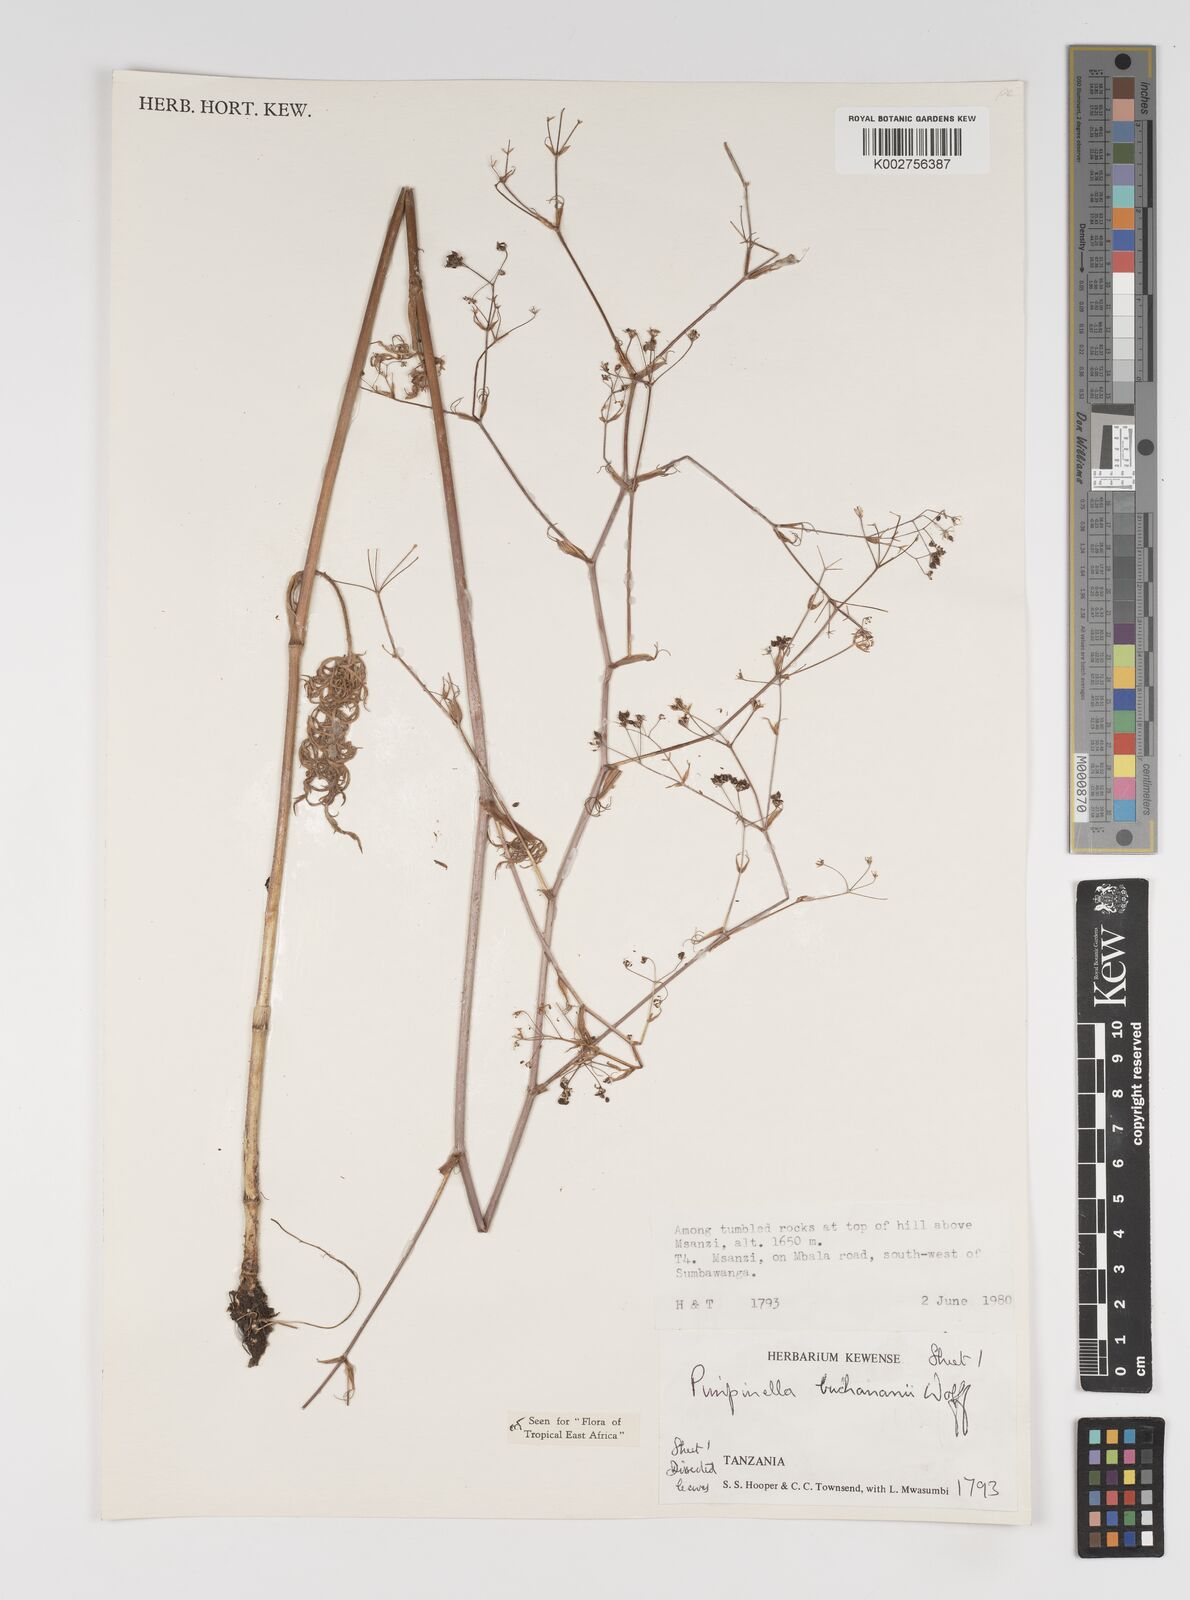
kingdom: Plantae
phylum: Tracheophyta
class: Magnoliopsida
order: Apiales
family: Apiaceae
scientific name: Apiaceae
